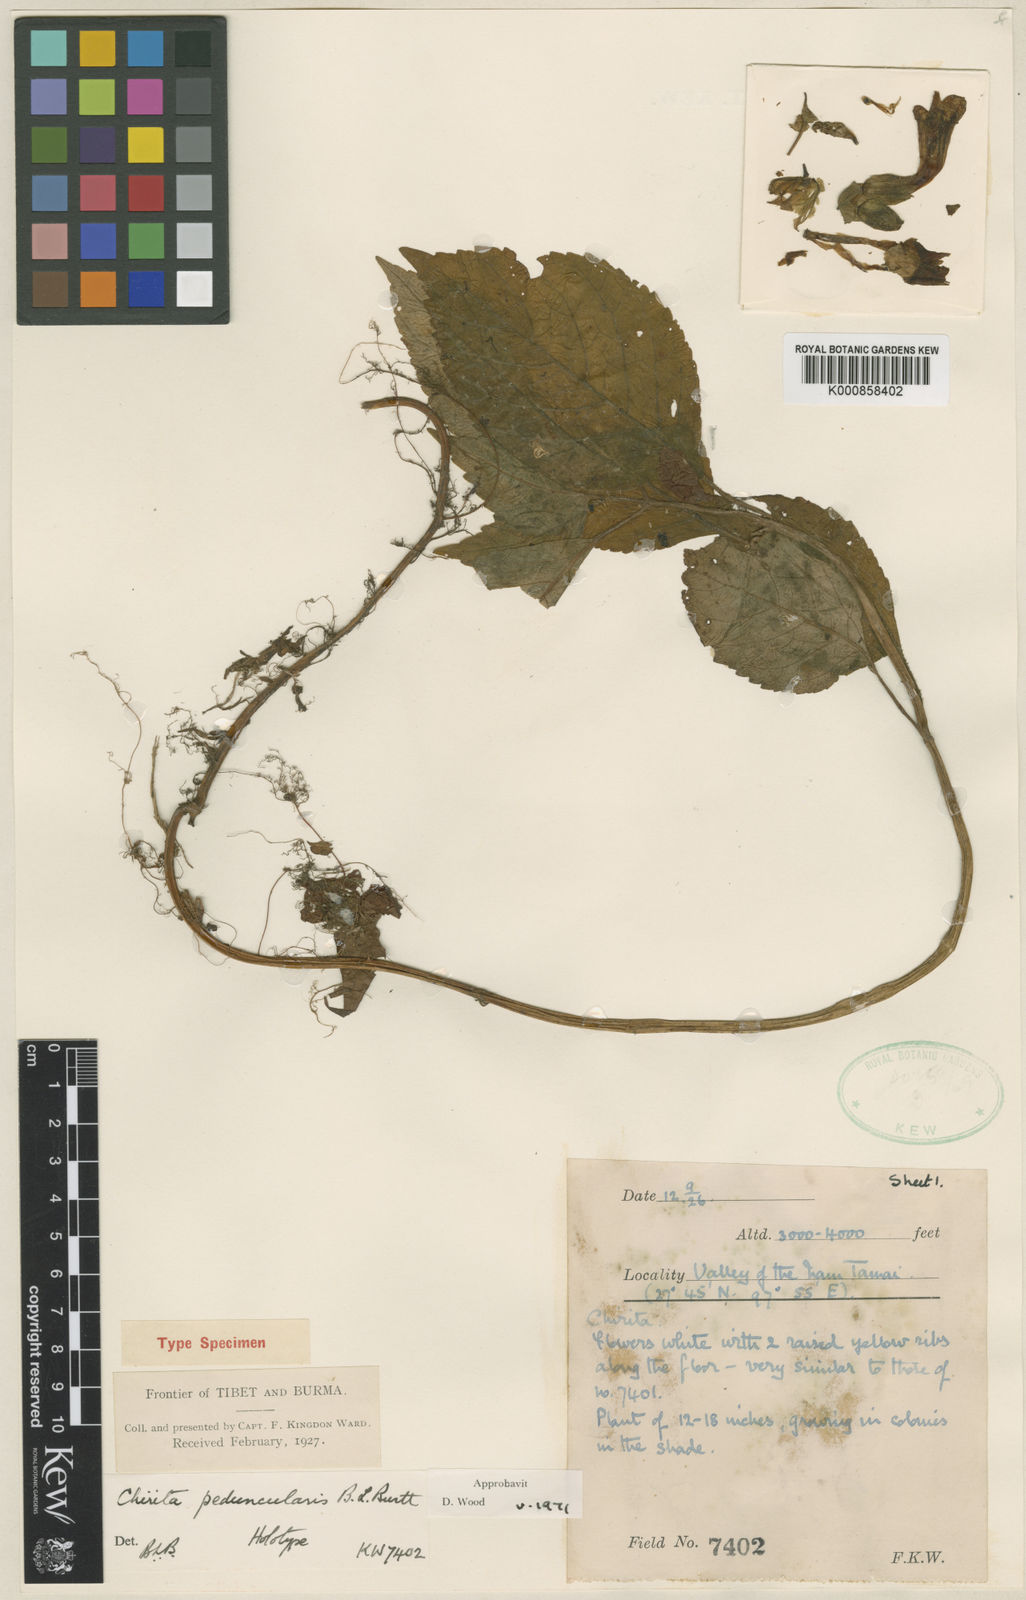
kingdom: Plantae
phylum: Tracheophyta
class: Magnoliopsida
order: Lamiales
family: Gesneriaceae
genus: Henckelia
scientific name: Henckelia peduncularis
